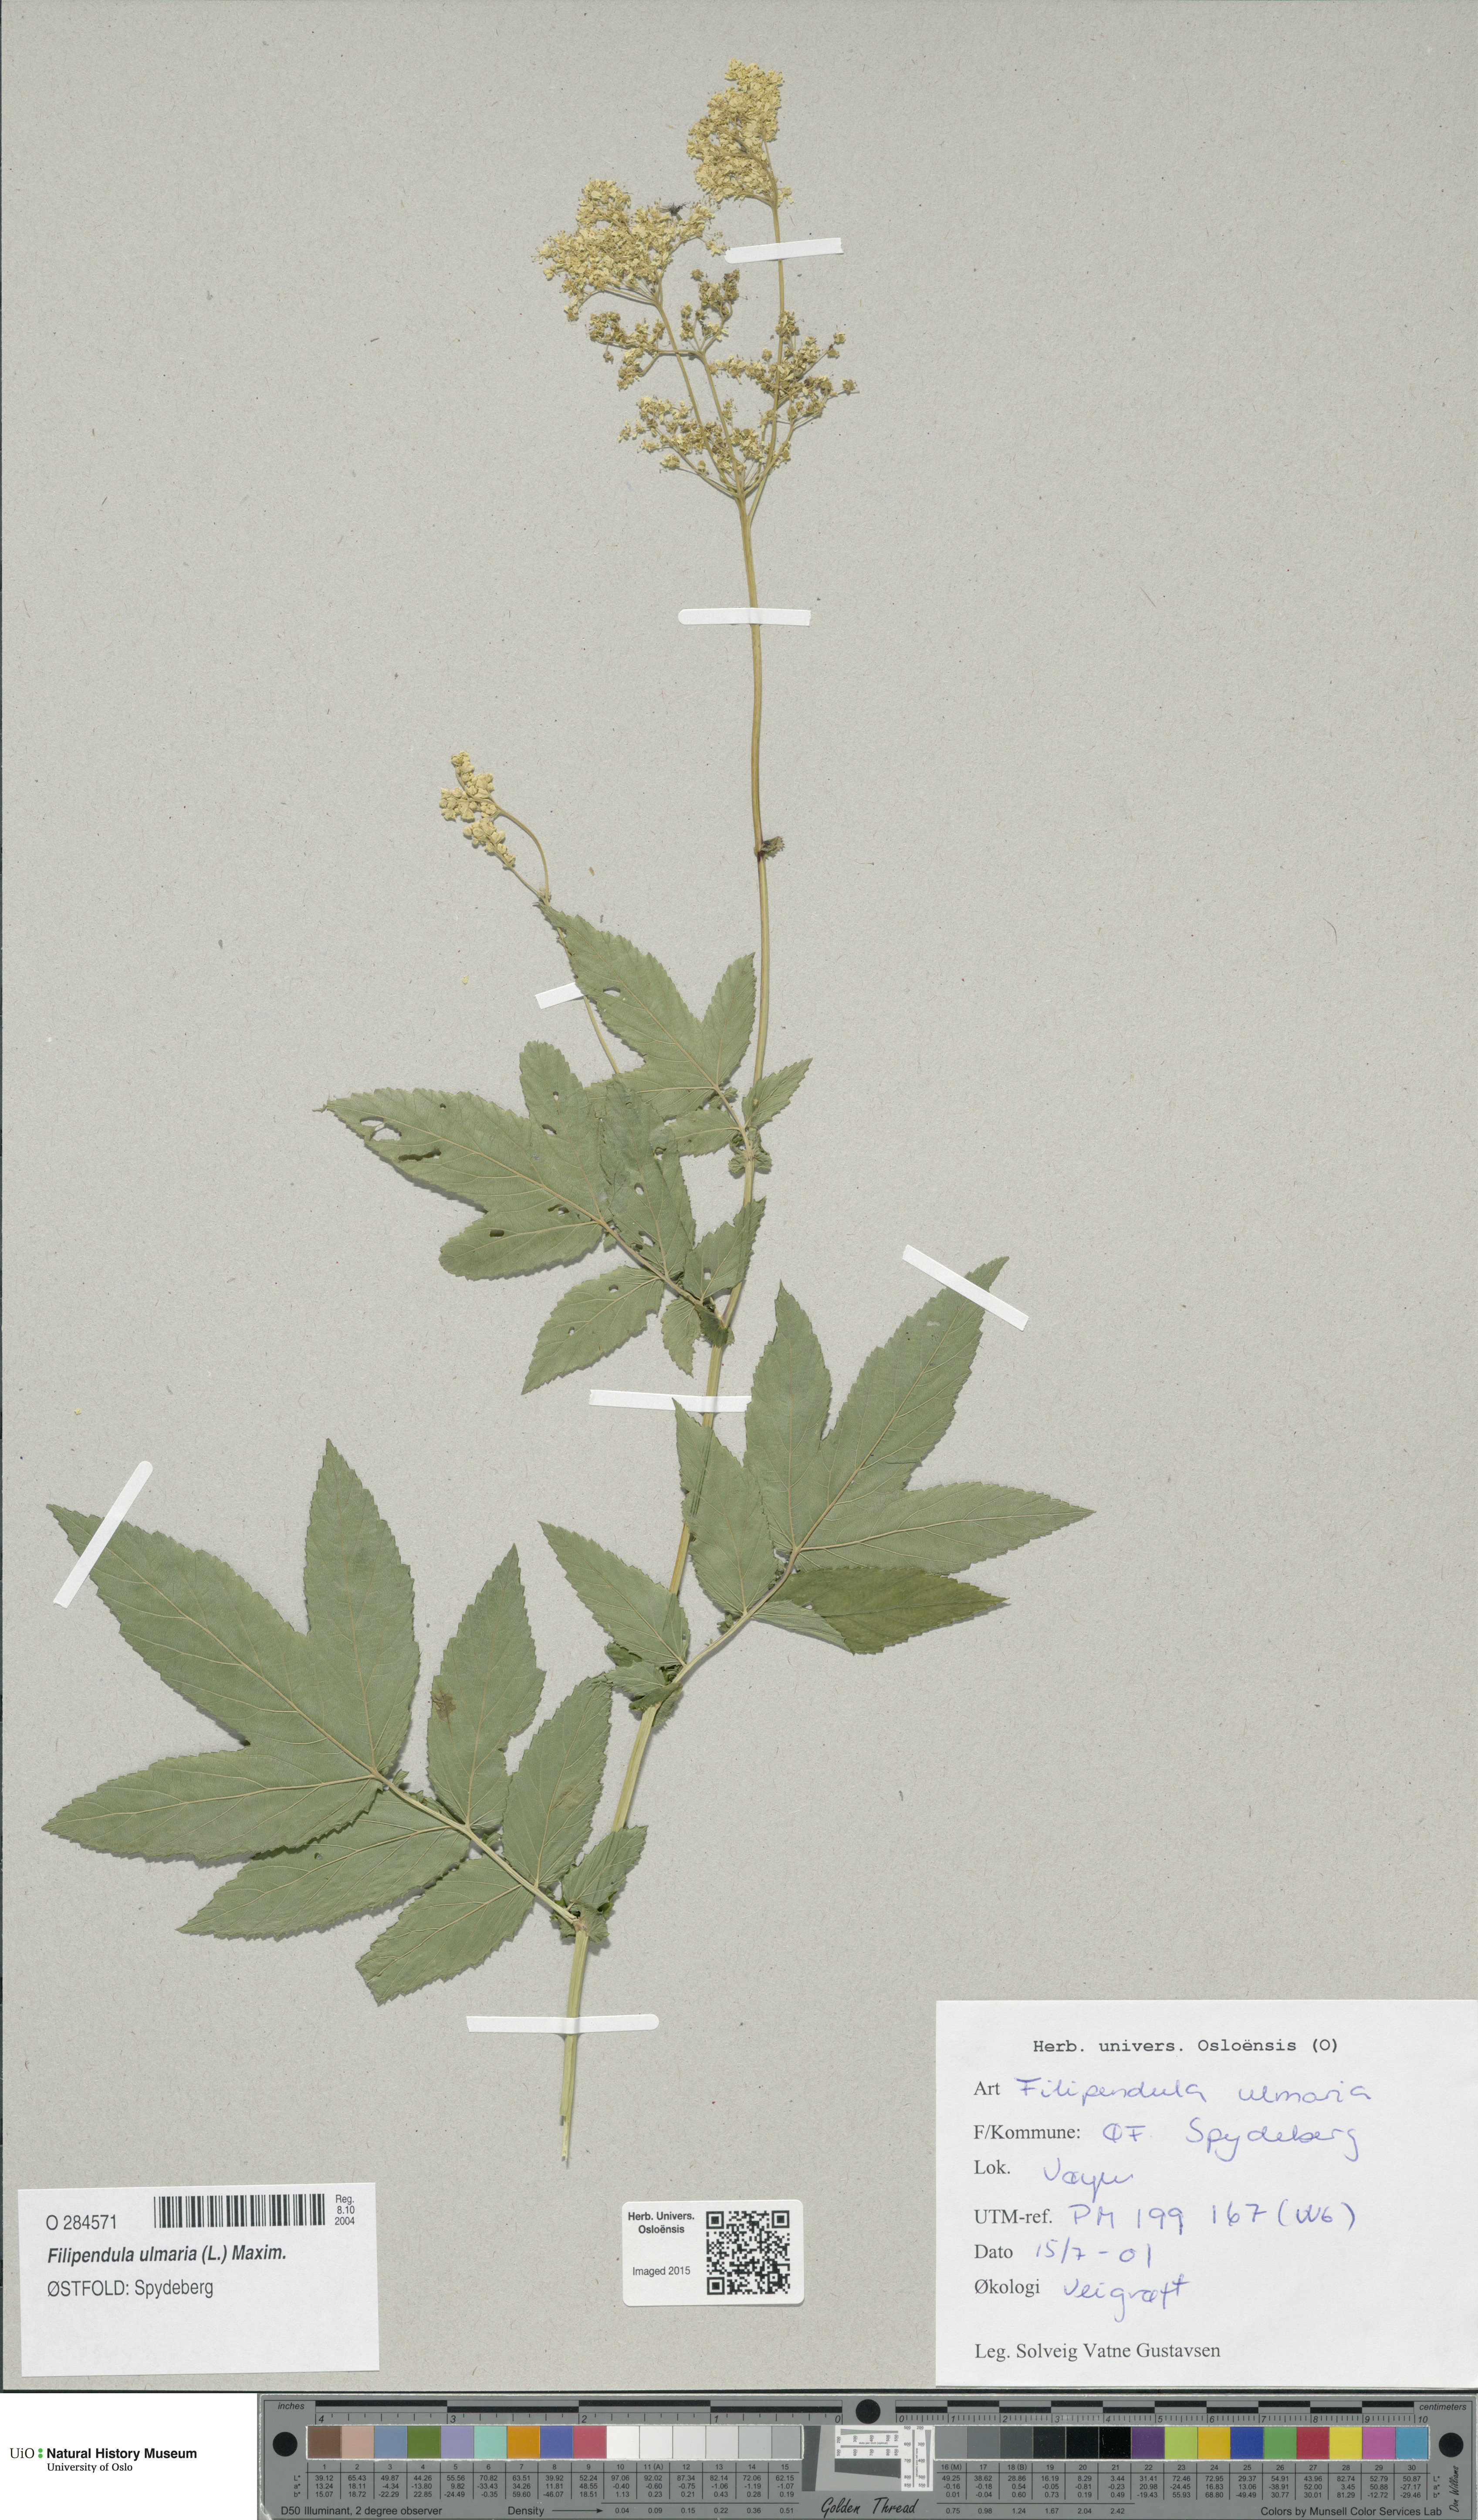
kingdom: Plantae
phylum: Tracheophyta
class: Magnoliopsida
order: Rosales
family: Rosaceae
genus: Filipendula
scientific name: Filipendula ulmaria
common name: Meadowsweet
